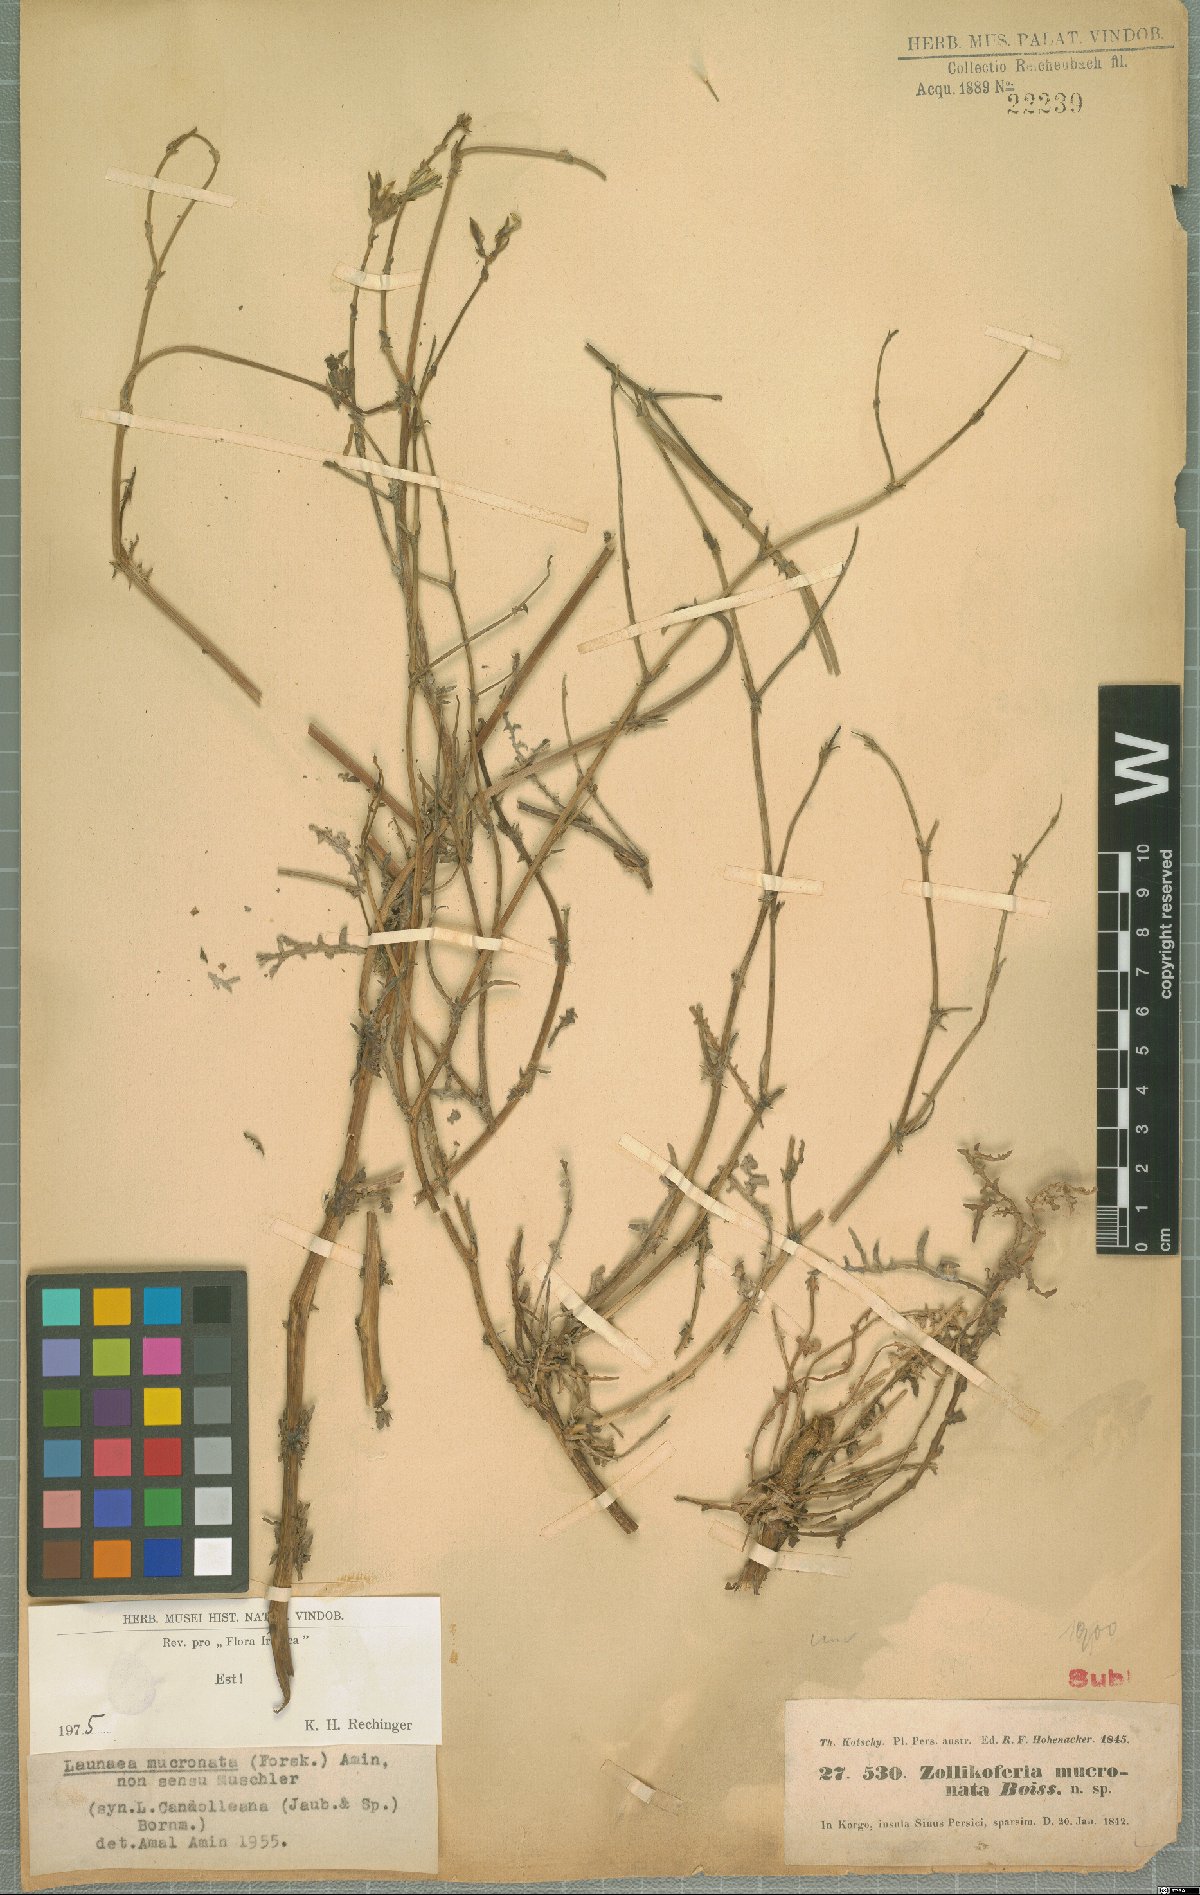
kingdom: Plantae
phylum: Tracheophyta
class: Magnoliopsida
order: Asterales
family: Asteraceae
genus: Launaea
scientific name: Launaea mucronata
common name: Mucronate launea
